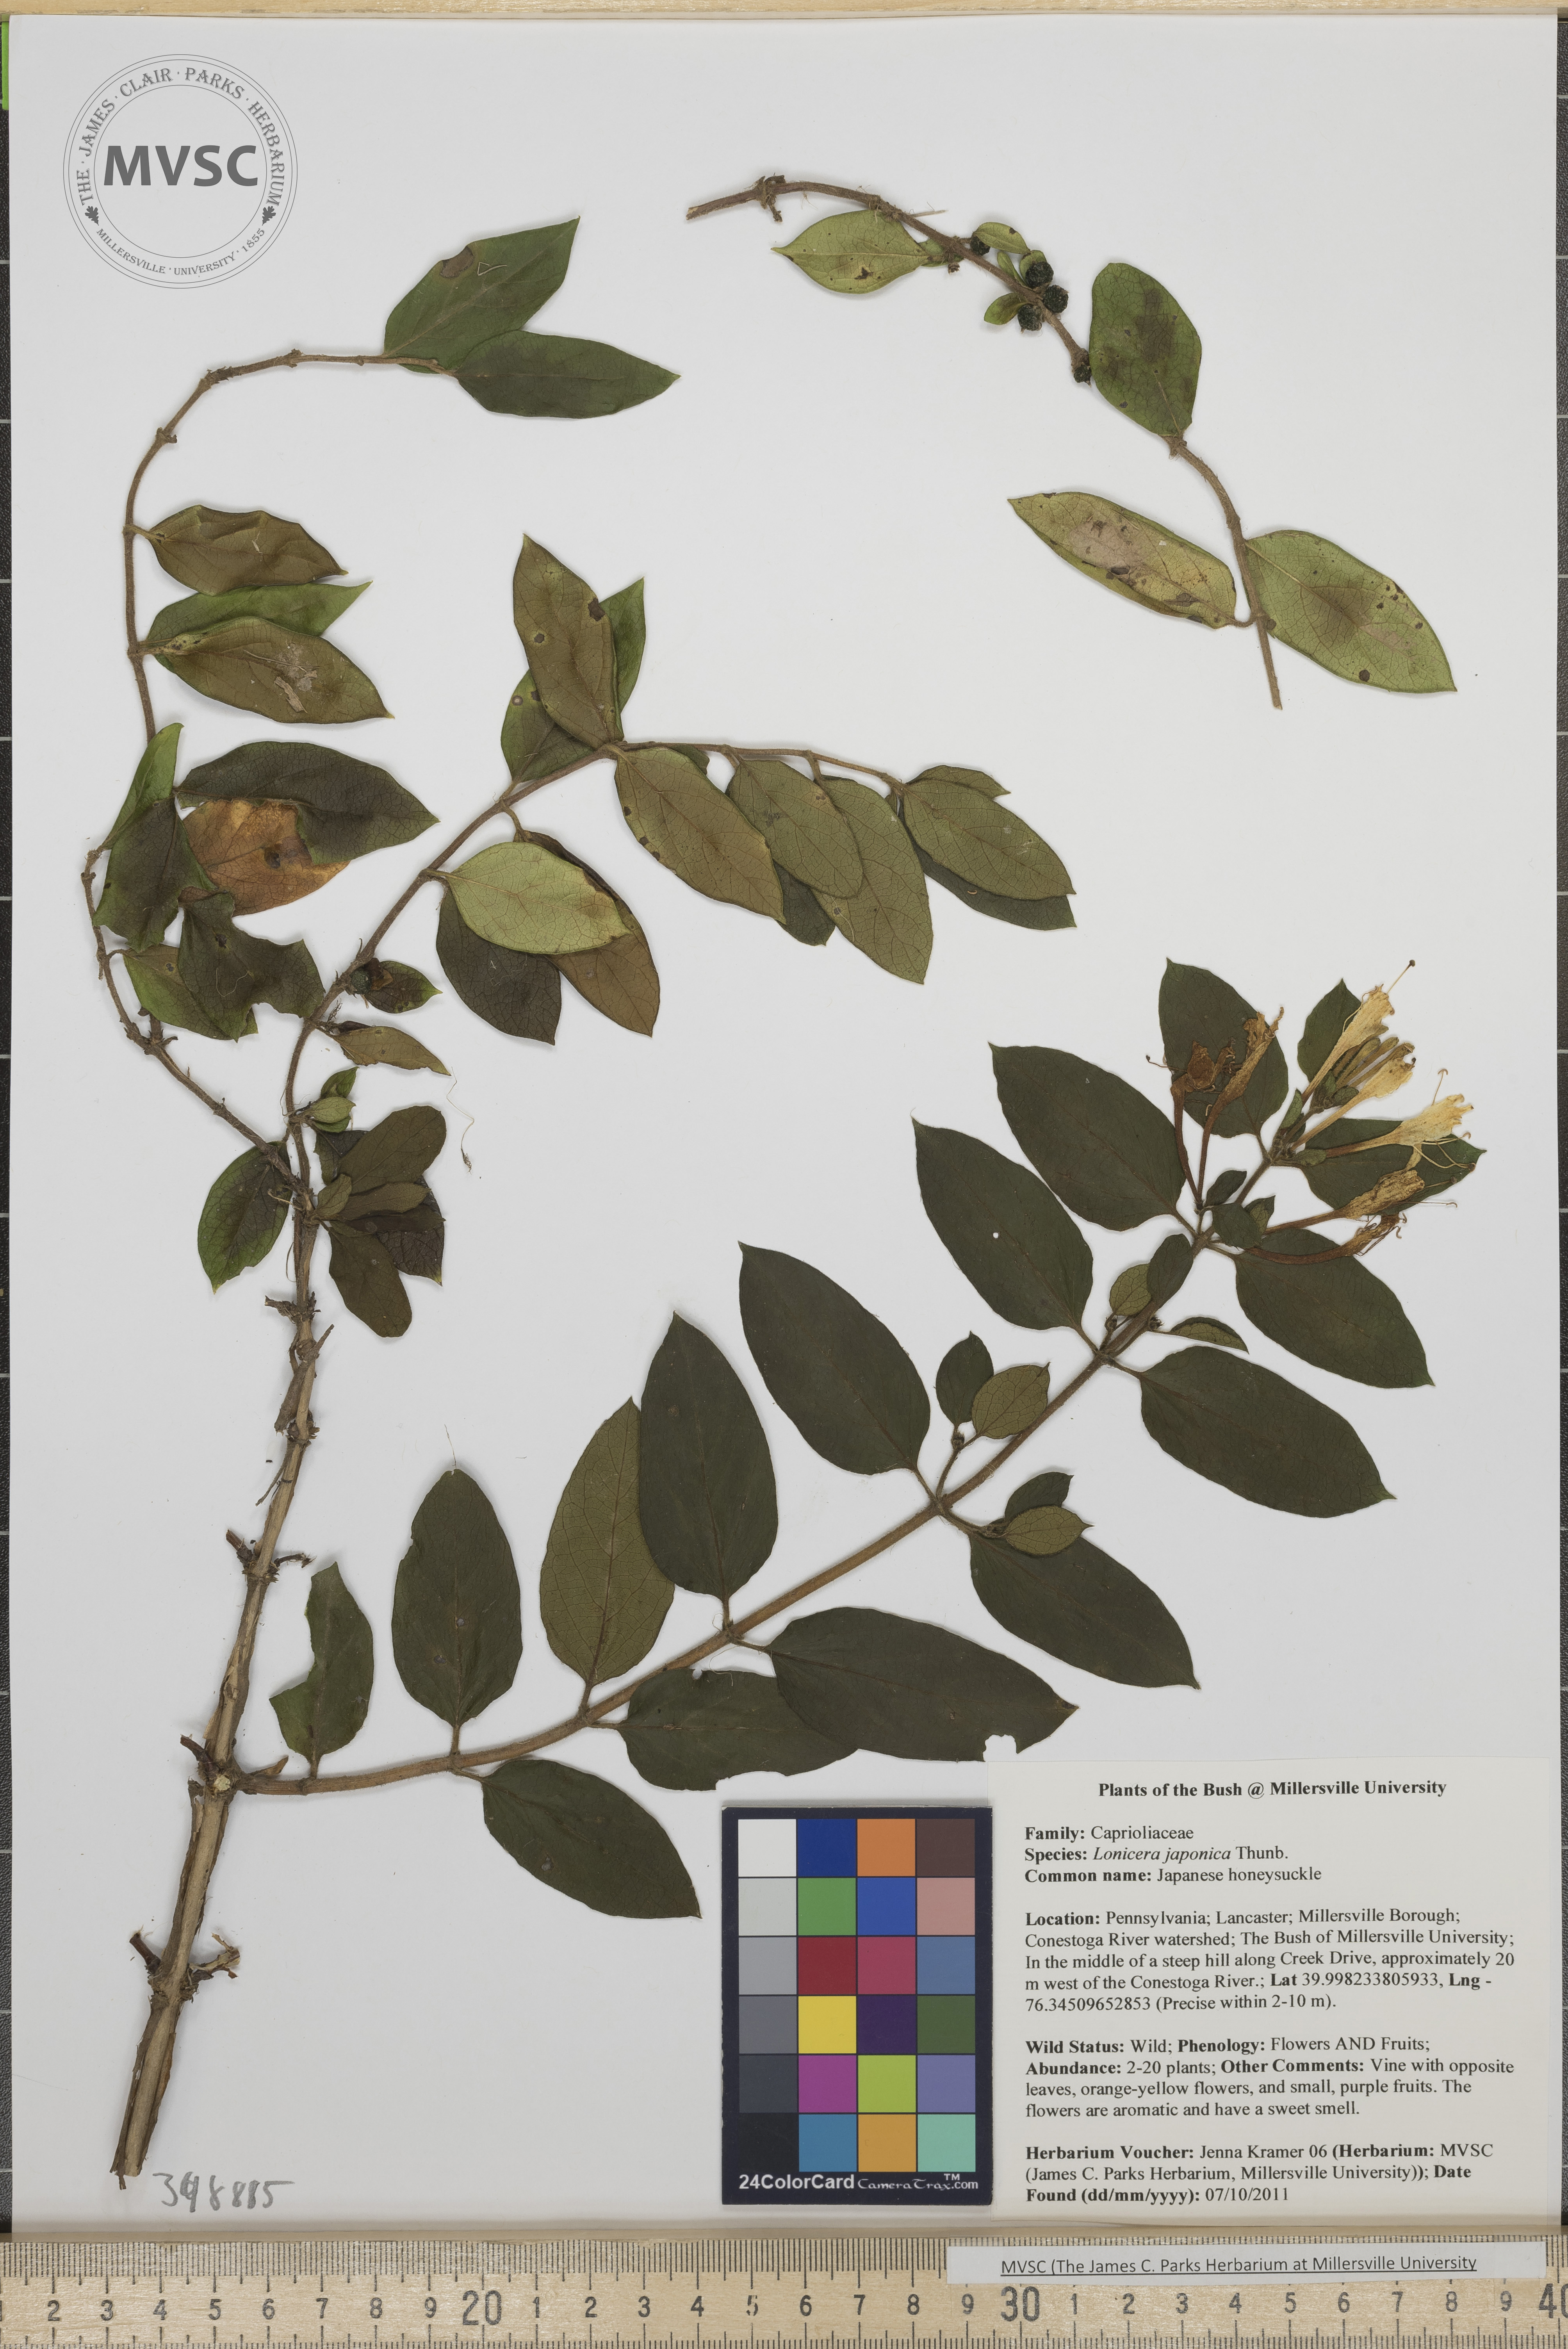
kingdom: Plantae
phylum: Tracheophyta
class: Magnoliopsida
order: Dipsacales
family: Caprifoliaceae
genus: Lonicera
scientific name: Lonicera japonica
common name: Japanese honeysuckle
